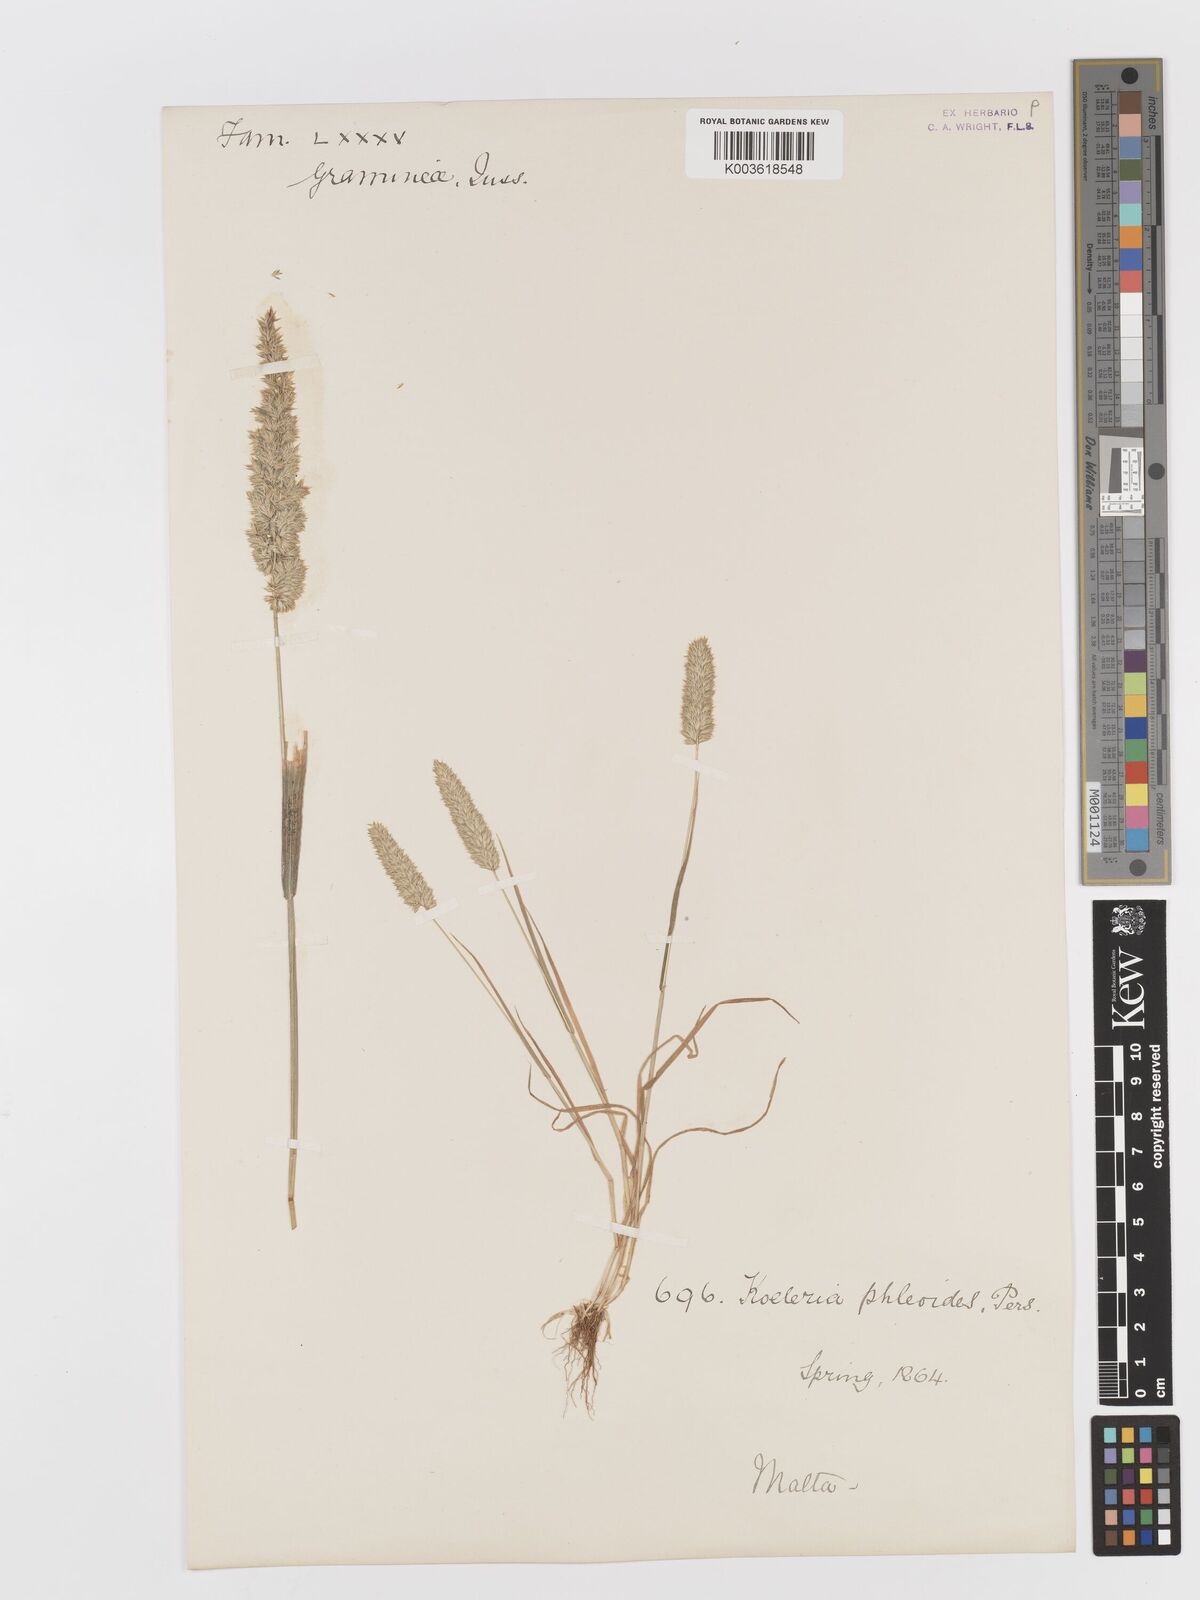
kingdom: Plantae
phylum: Tracheophyta
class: Liliopsida
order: Poales
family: Poaceae
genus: Rostraria
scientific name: Rostraria cristata
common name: Mediterranean hair-grass
